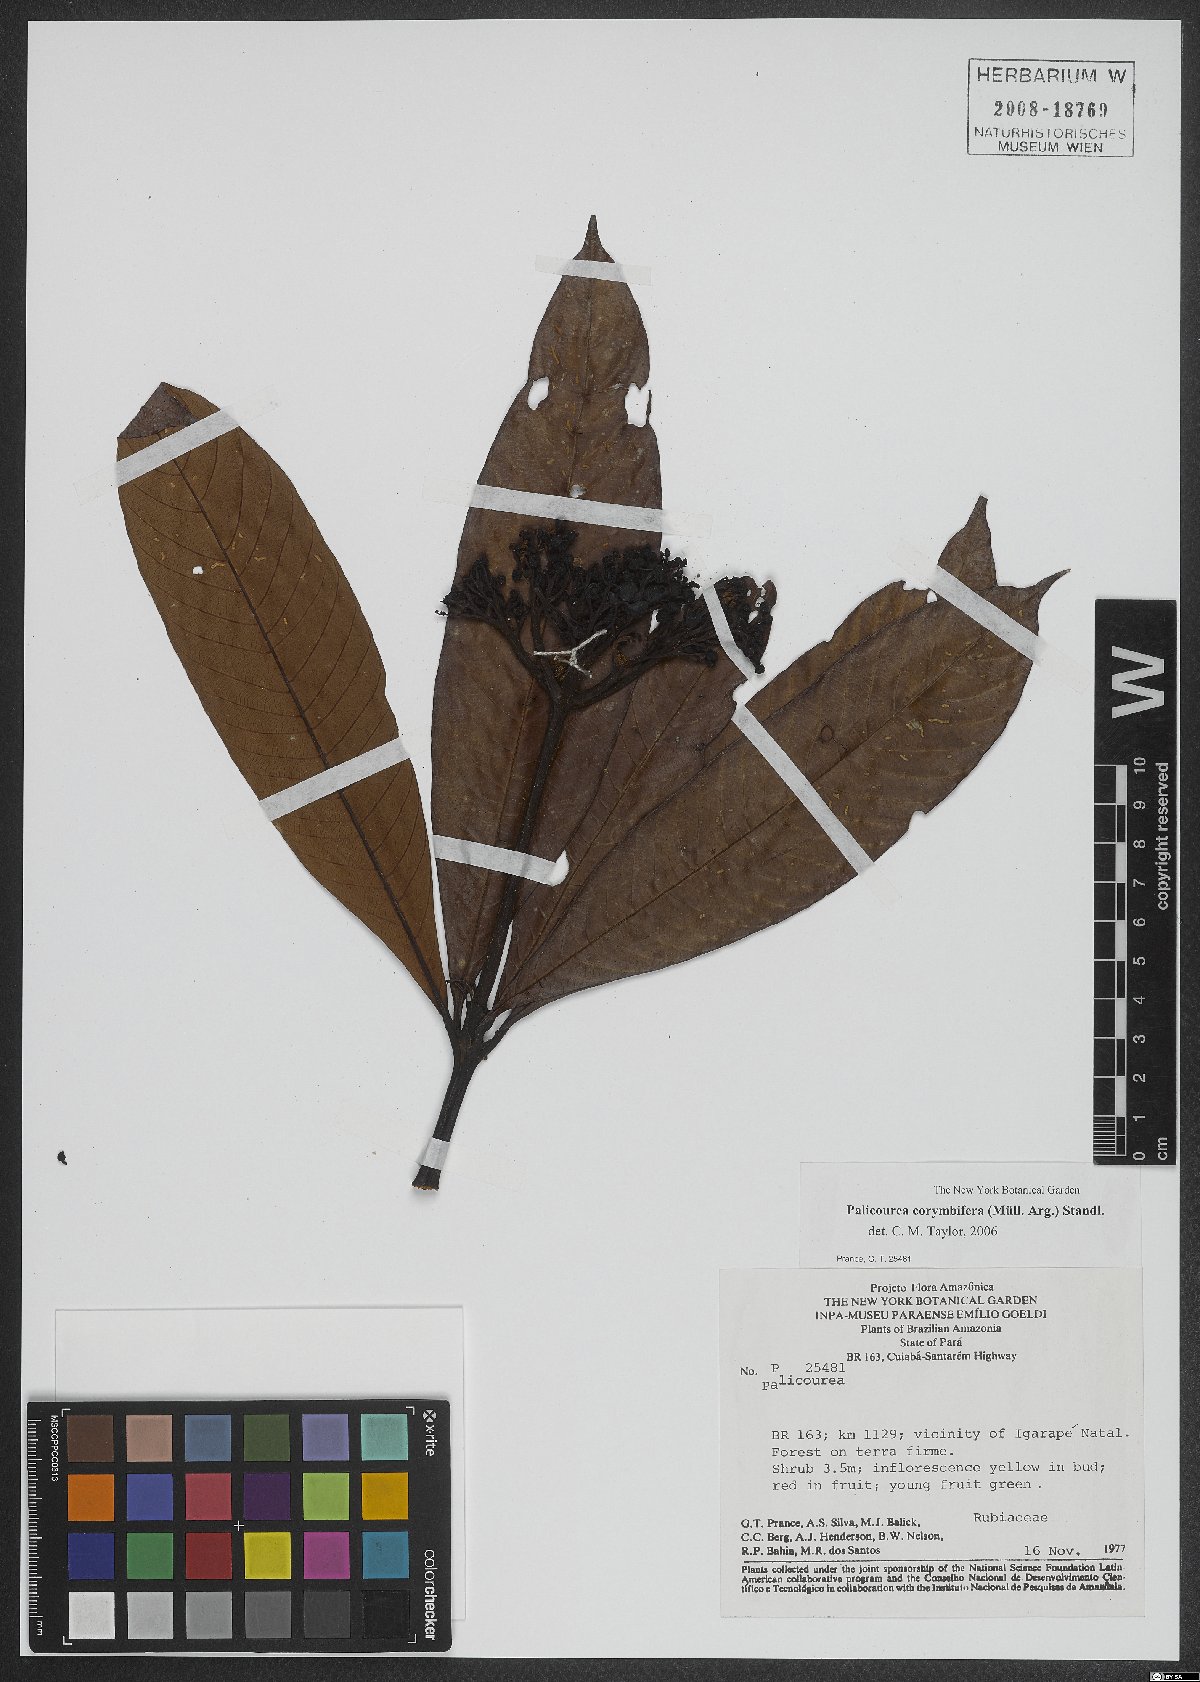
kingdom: Plantae
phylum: Tracheophyta
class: Magnoliopsida
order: Gentianales
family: Rubiaceae
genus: Palicourea
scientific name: Palicourea corymbifera
